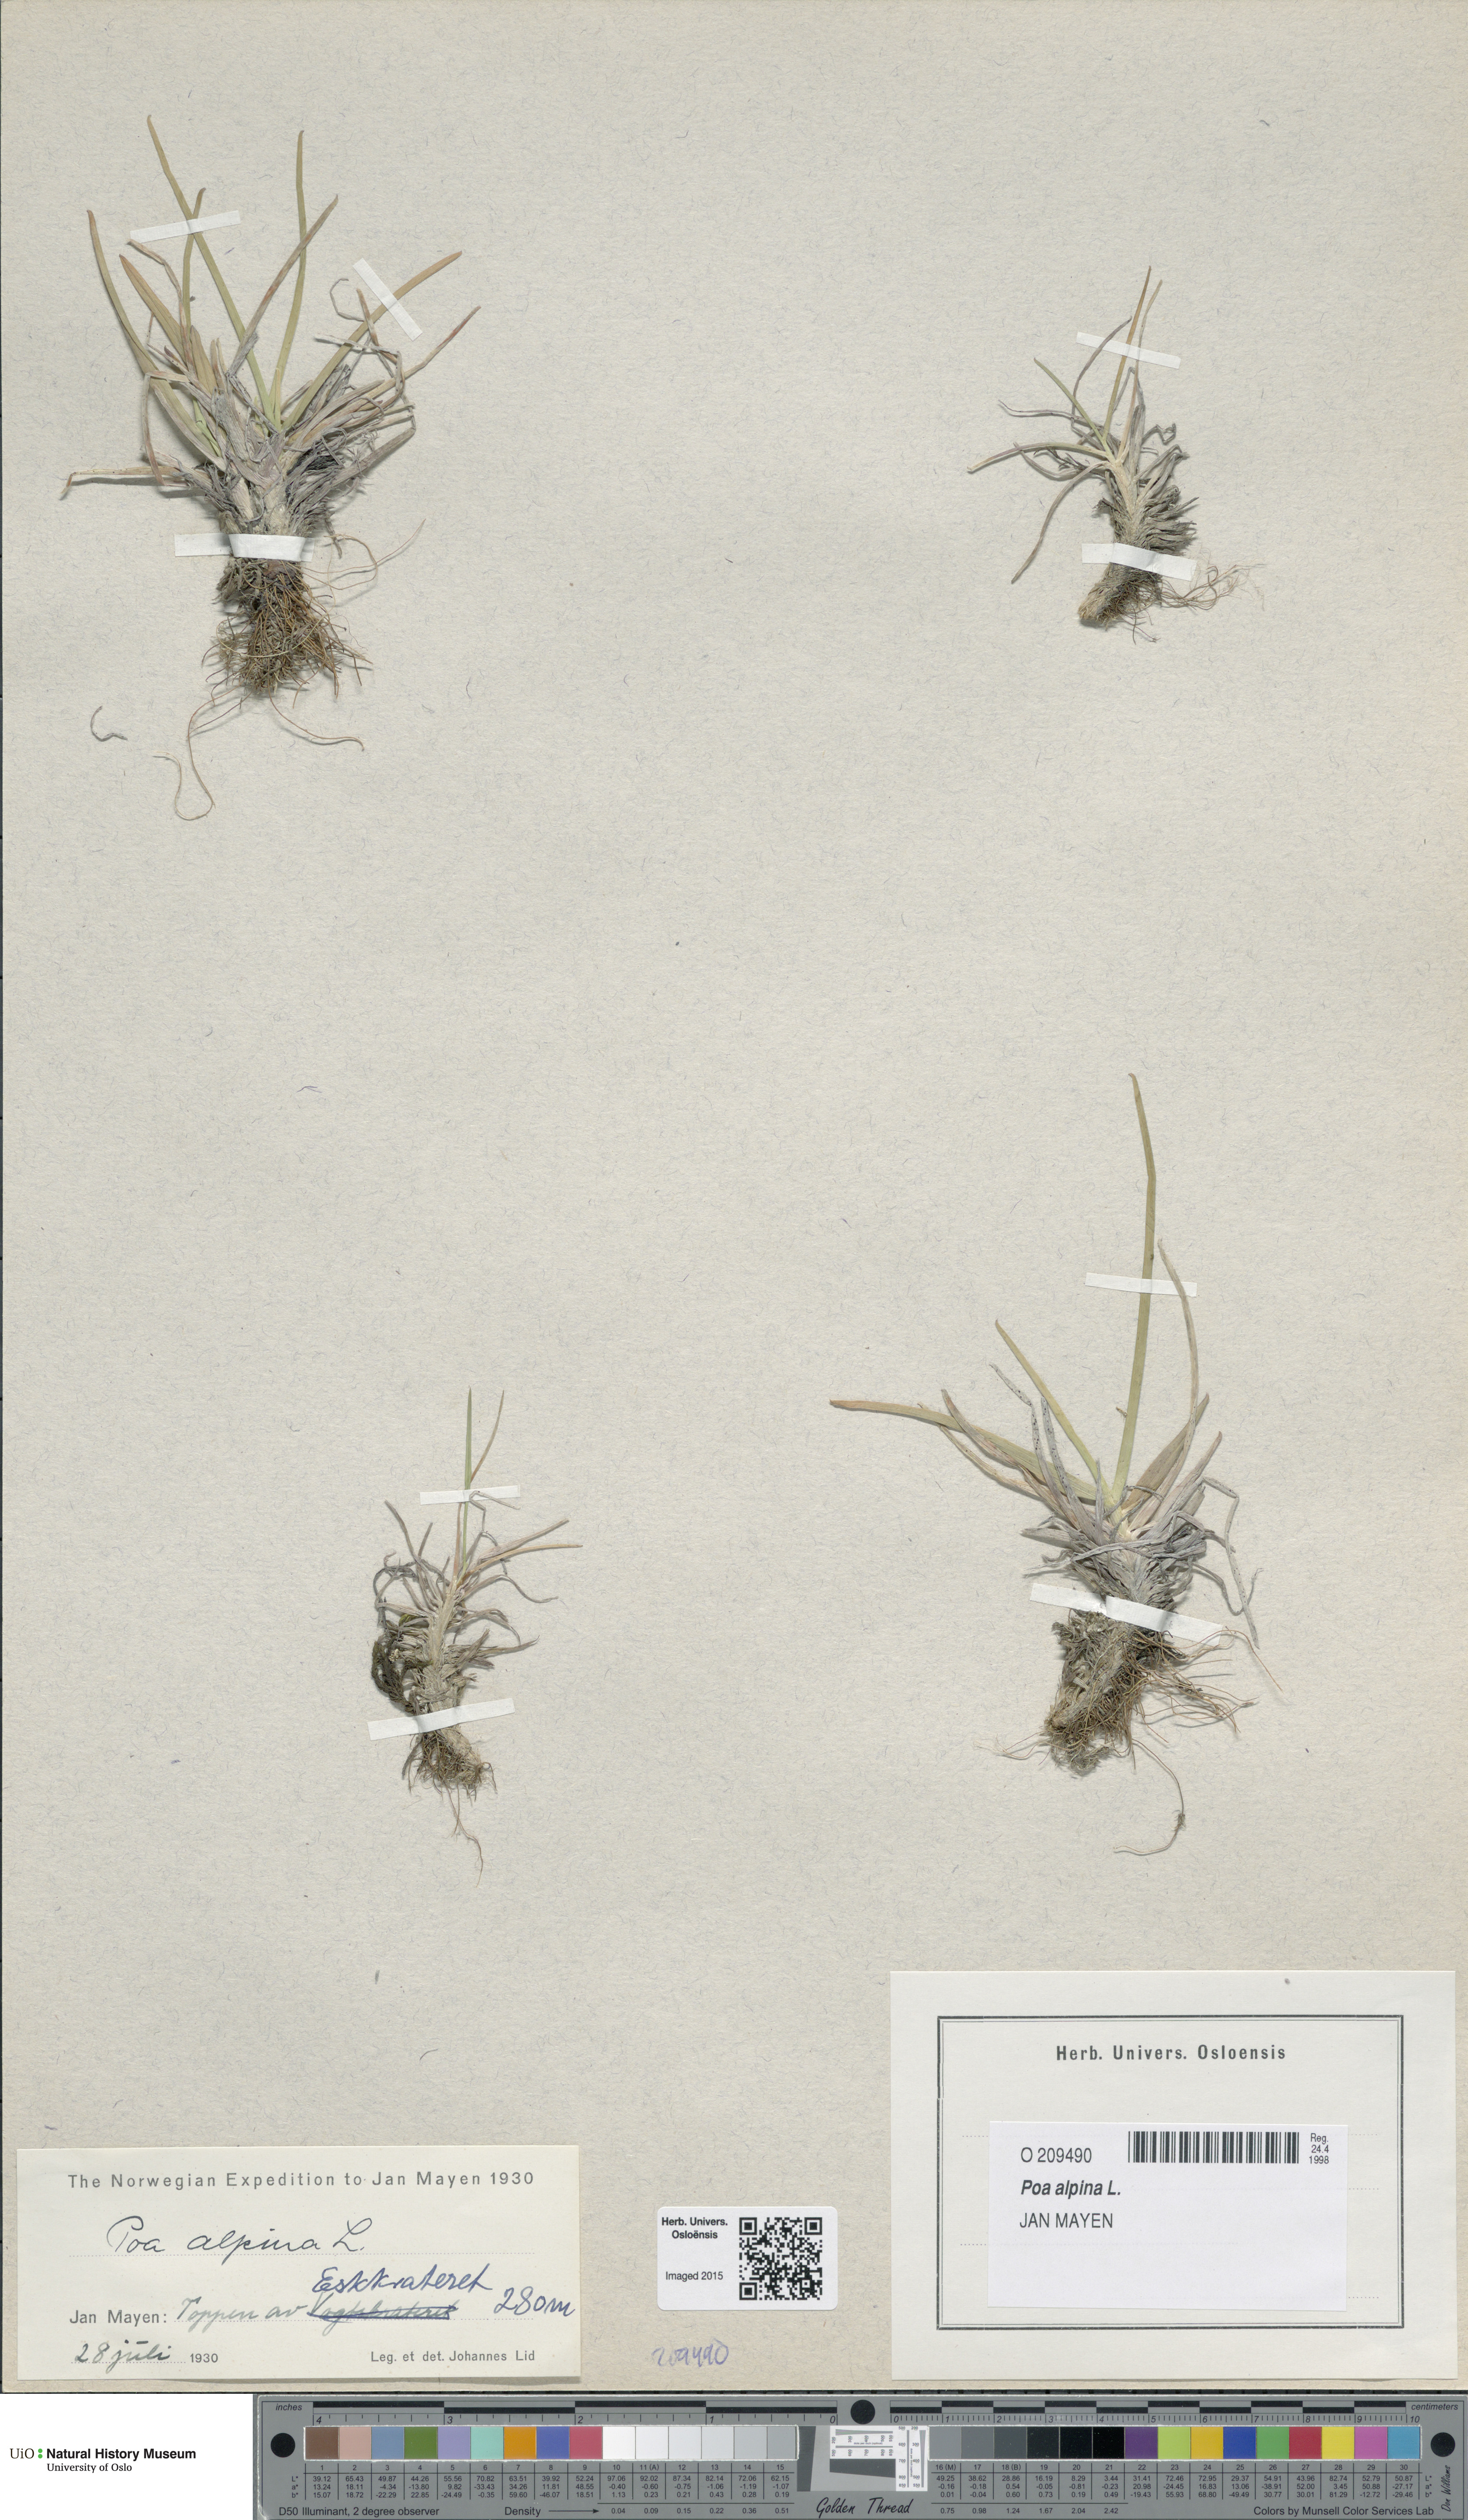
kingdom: Plantae
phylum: Tracheophyta
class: Liliopsida
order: Poales
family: Poaceae
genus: Poa
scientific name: Poa alpina
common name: Alpine bluegrass
